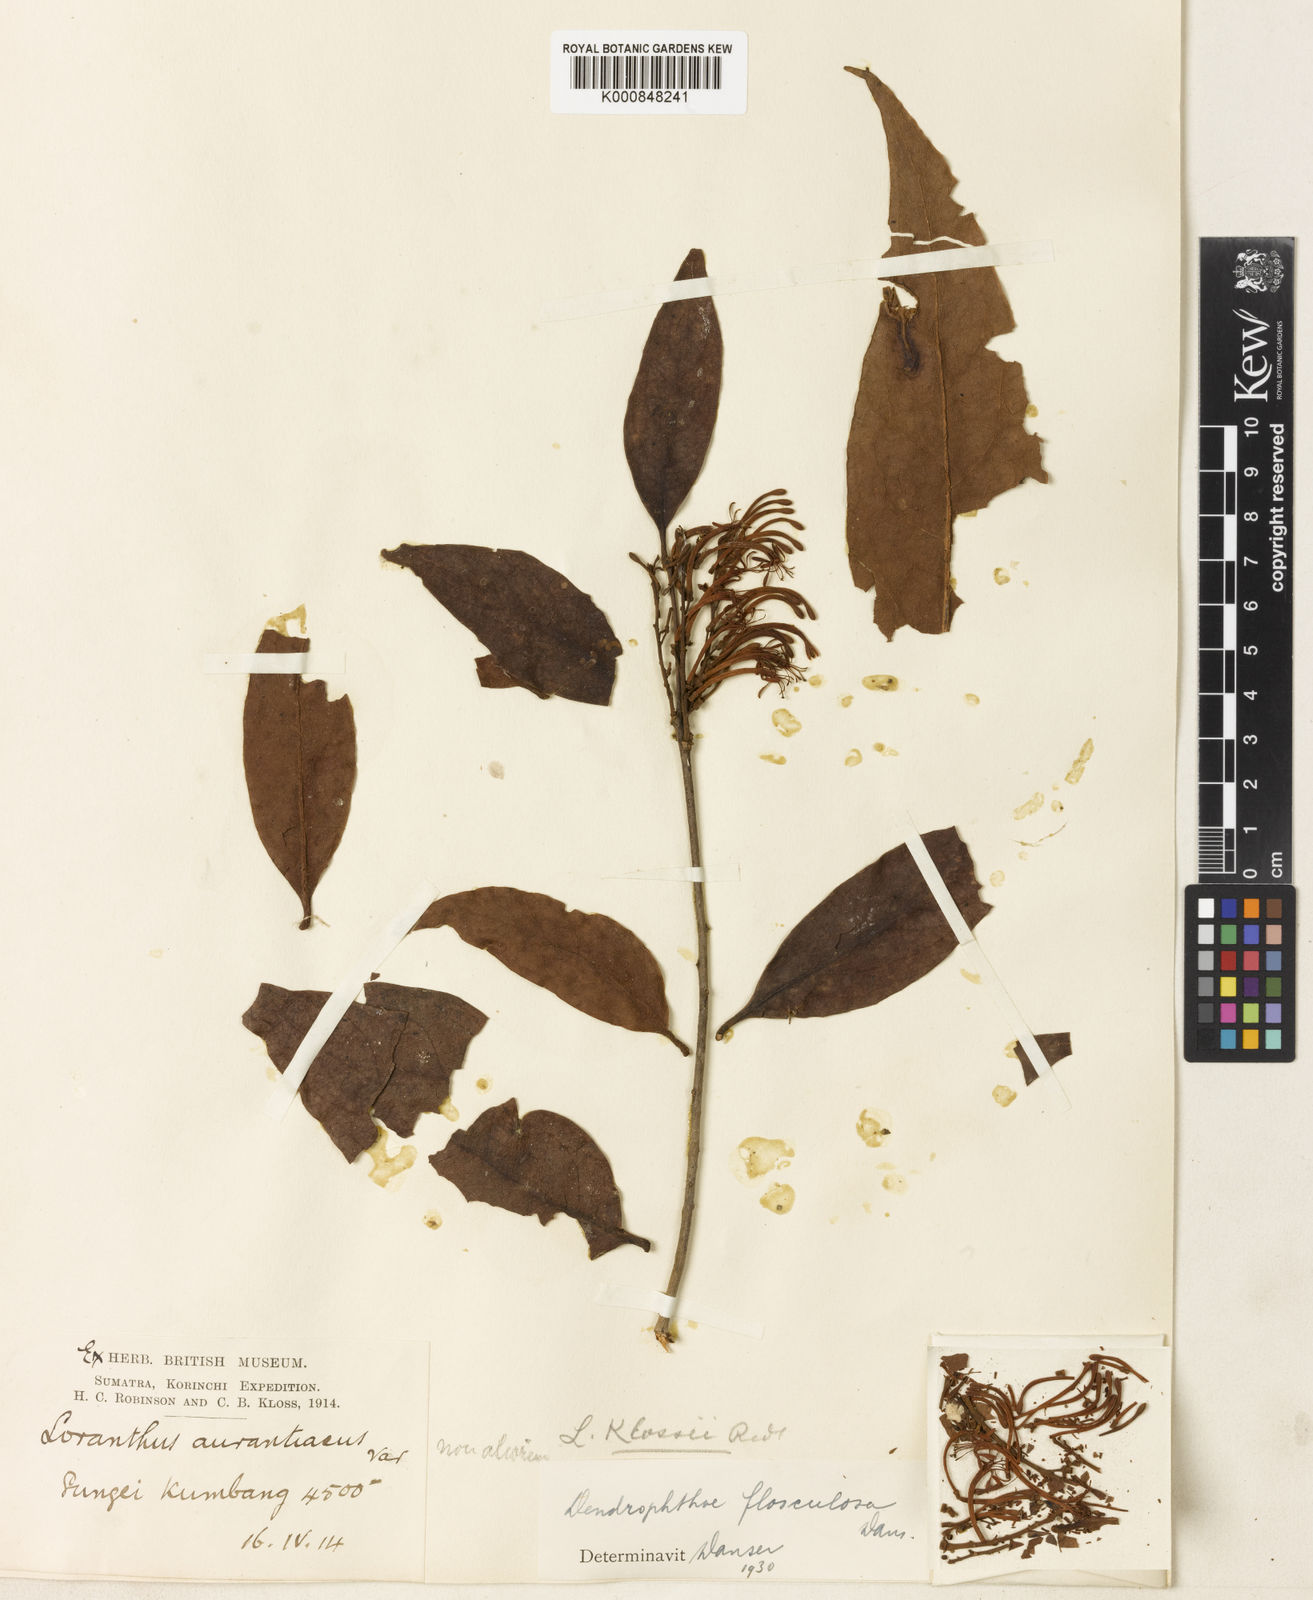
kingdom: Plantae
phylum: Tracheophyta
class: Magnoliopsida
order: Santalales
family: Loranthaceae
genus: Dendrophthoe
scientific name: Dendrophthoe flosculosa
